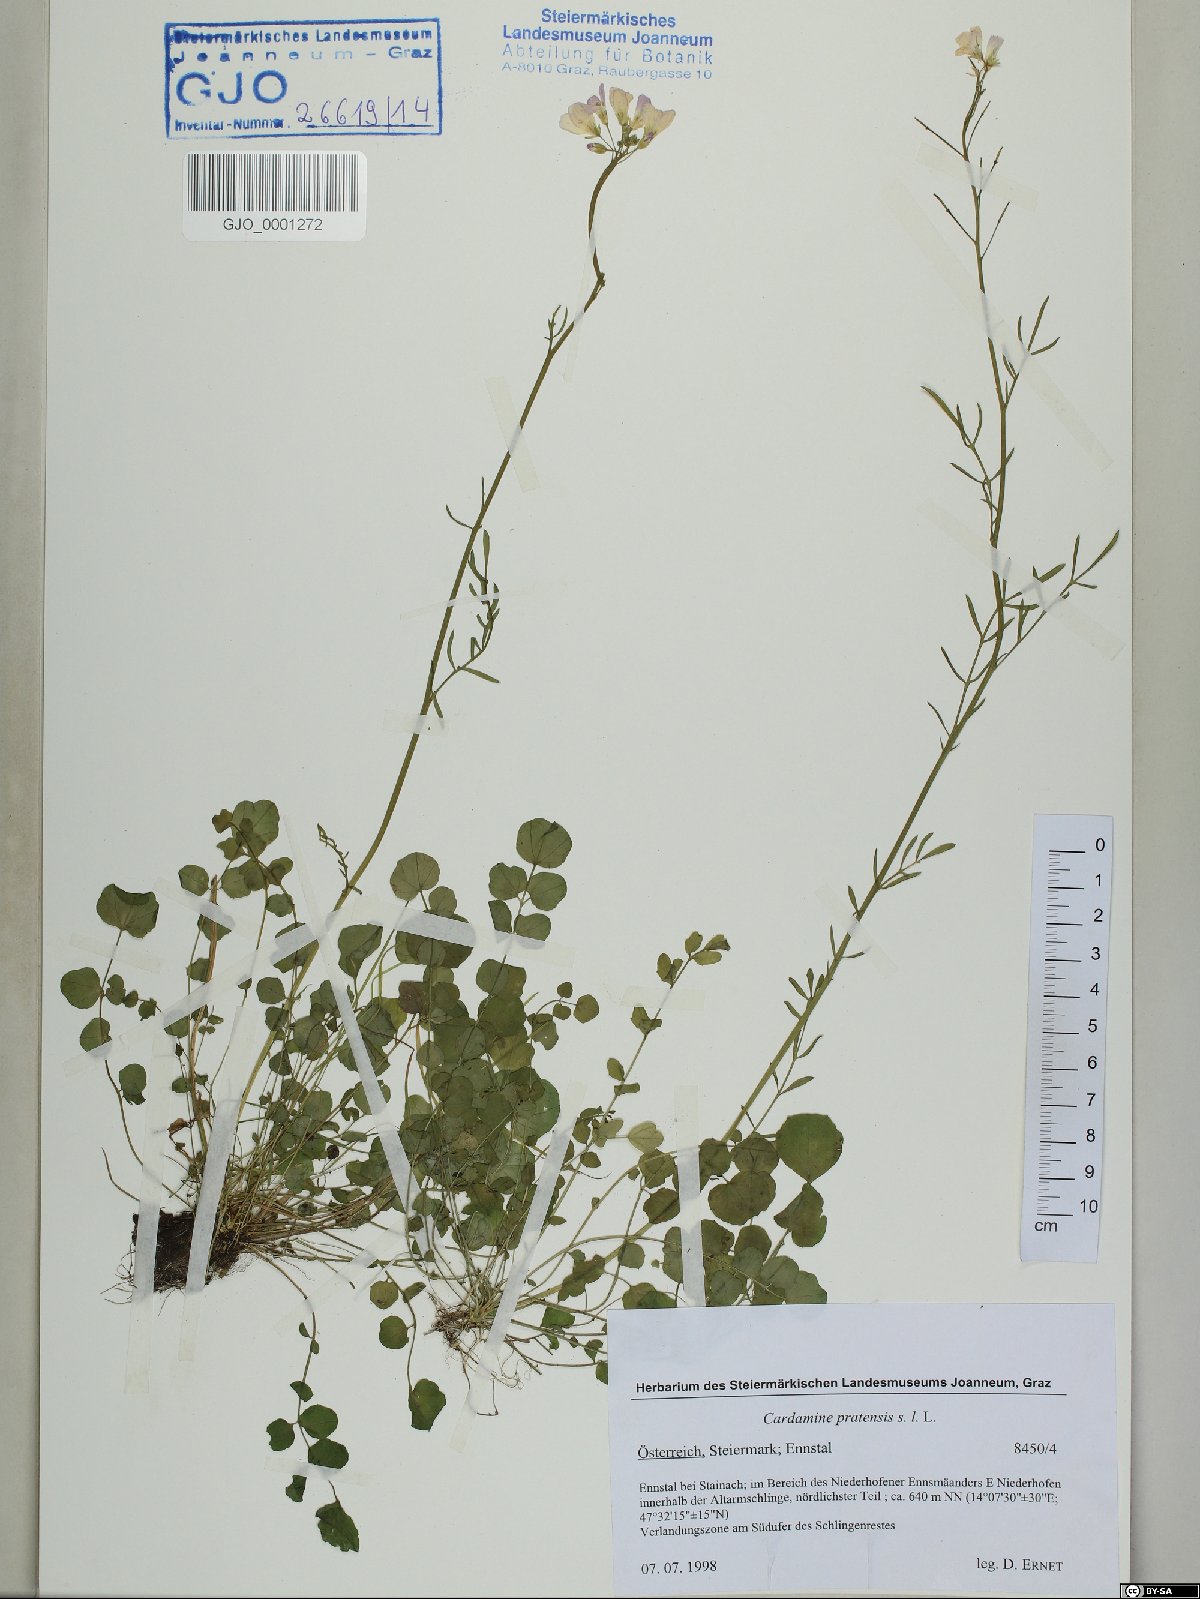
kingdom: Plantae
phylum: Tracheophyta
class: Magnoliopsida
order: Brassicales
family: Brassicaceae
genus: Cardamine
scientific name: Cardamine pratensis
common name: Cuckoo flower
